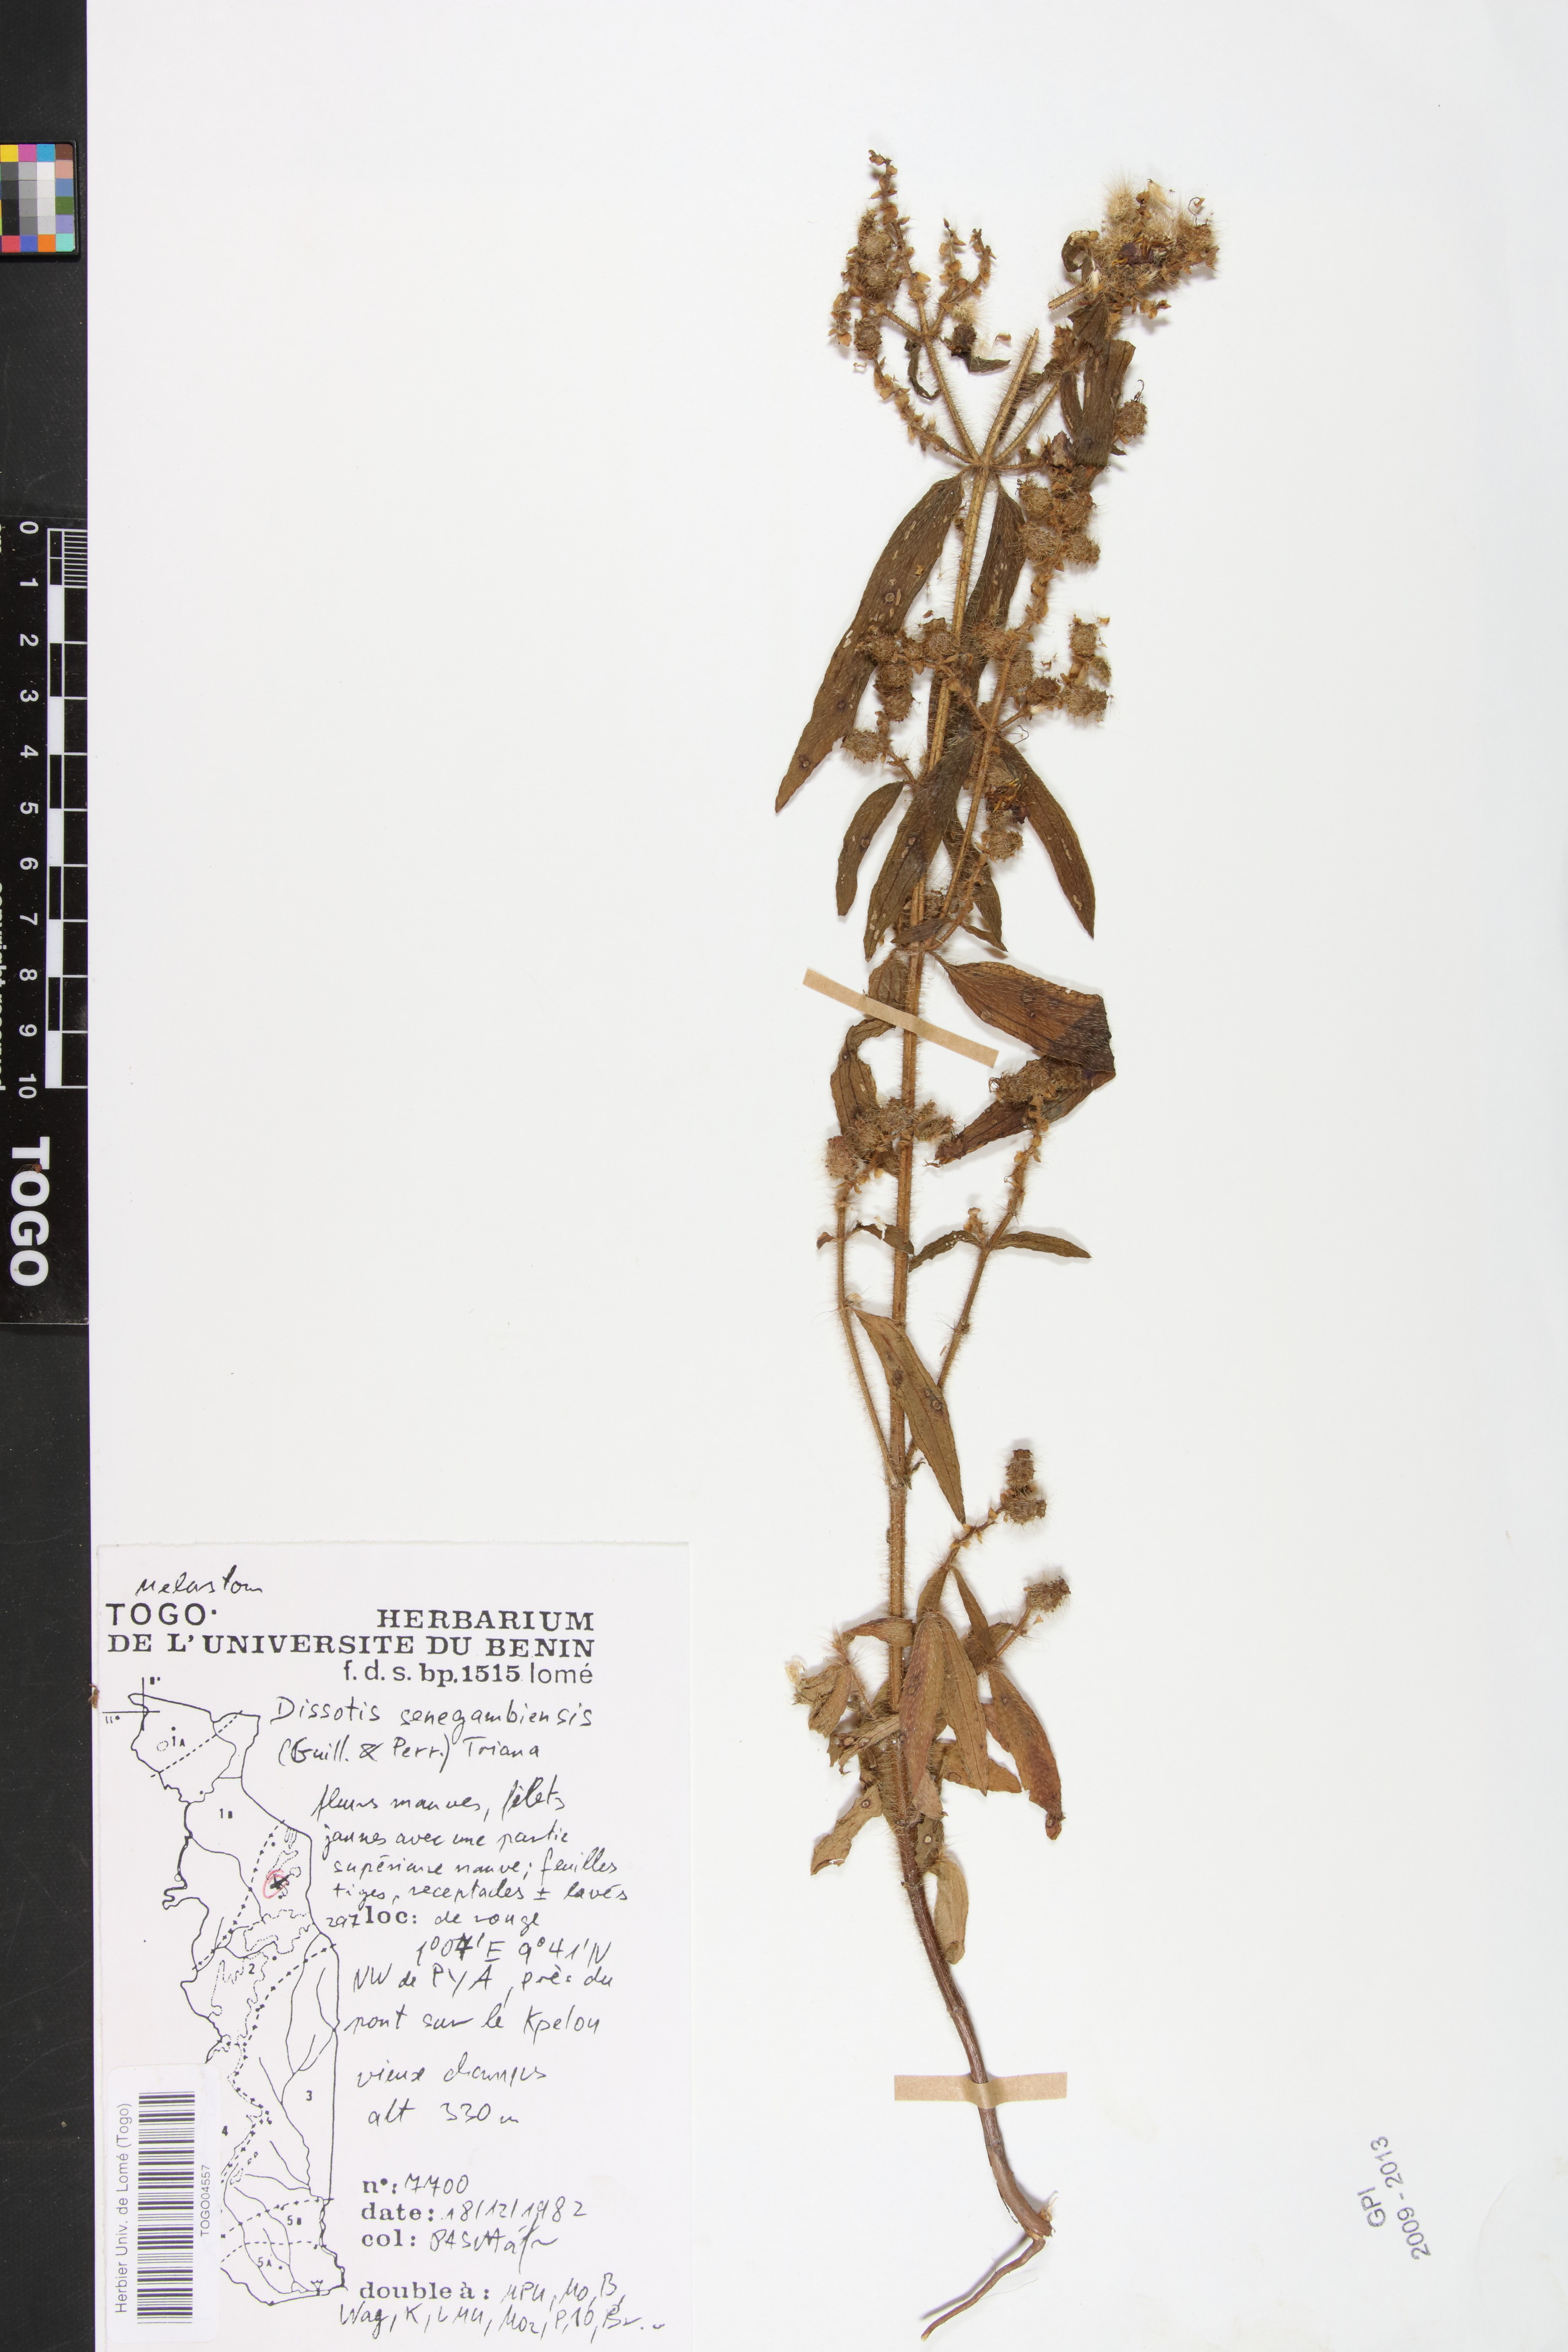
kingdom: Plantae
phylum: Tracheophyta
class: Magnoliopsida
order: Myrtales
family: Melastomataceae
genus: Antherotoma
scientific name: Antherotoma irvingiana
